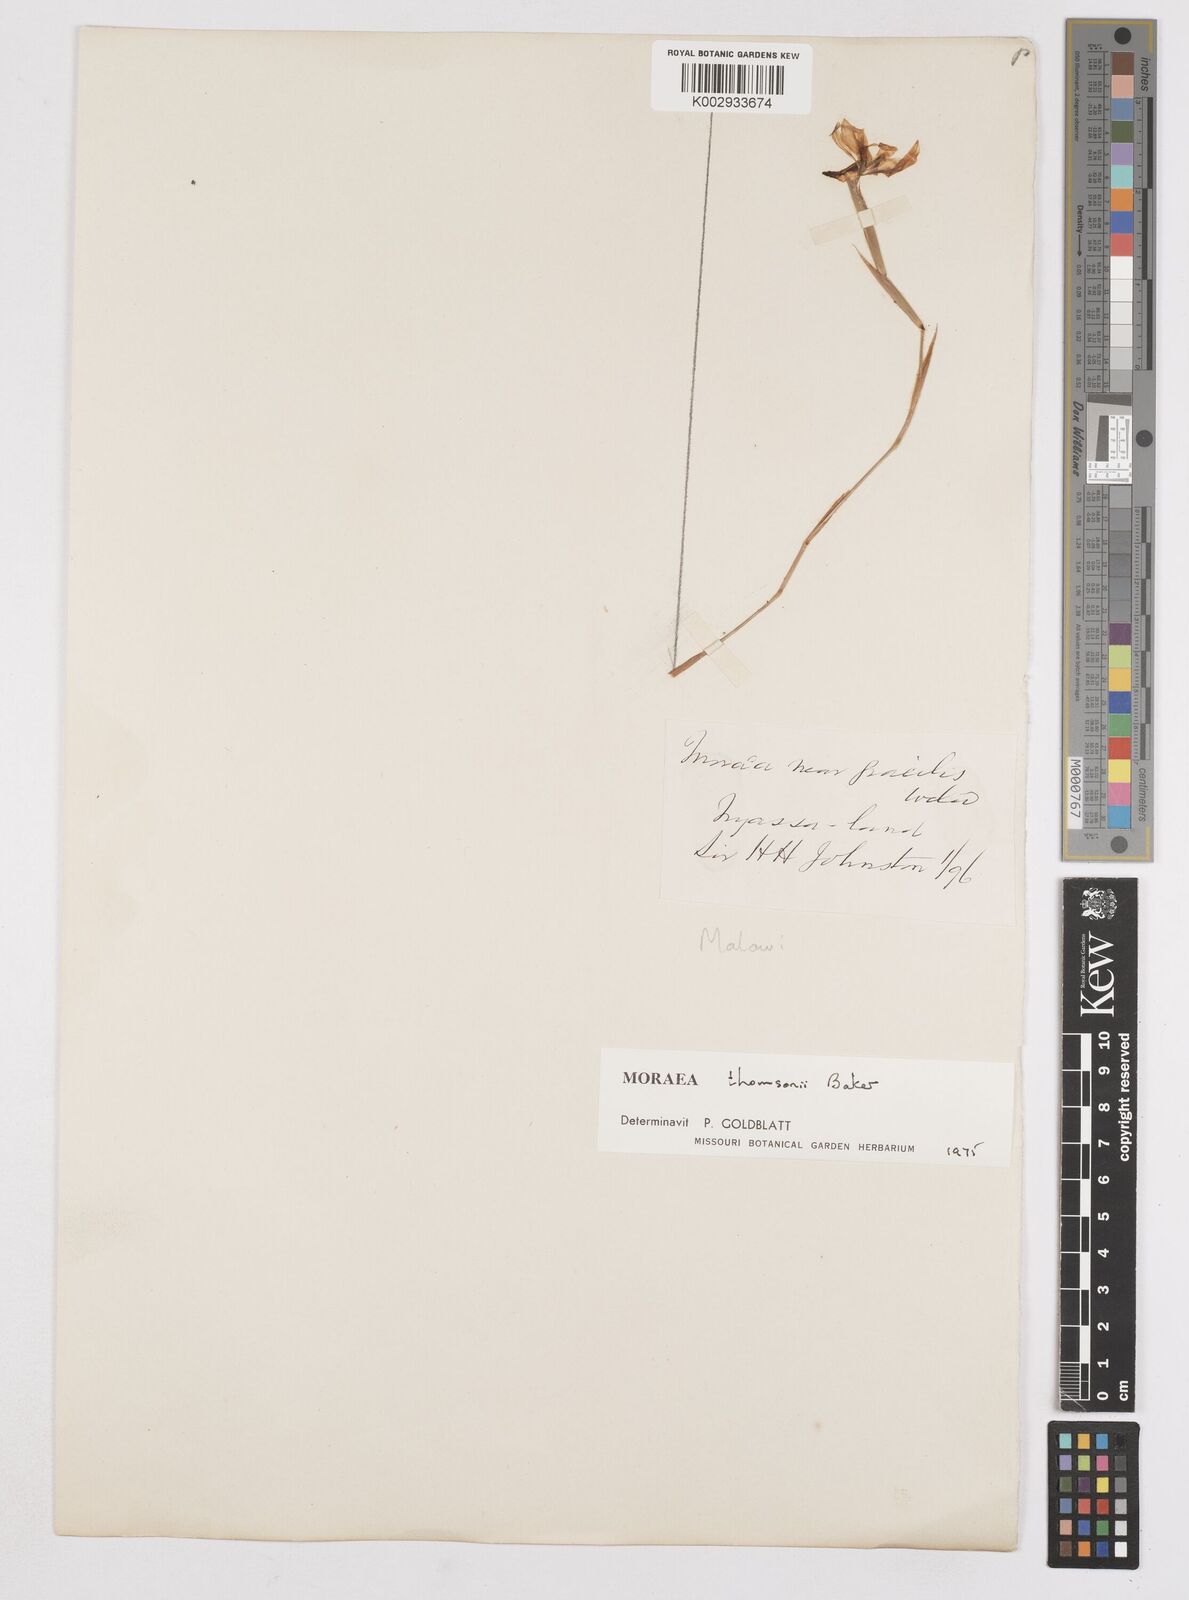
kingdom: Plantae
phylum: Tracheophyta
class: Liliopsida
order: Asparagales
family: Iridaceae
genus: Moraea
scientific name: Moraea thomsonii
